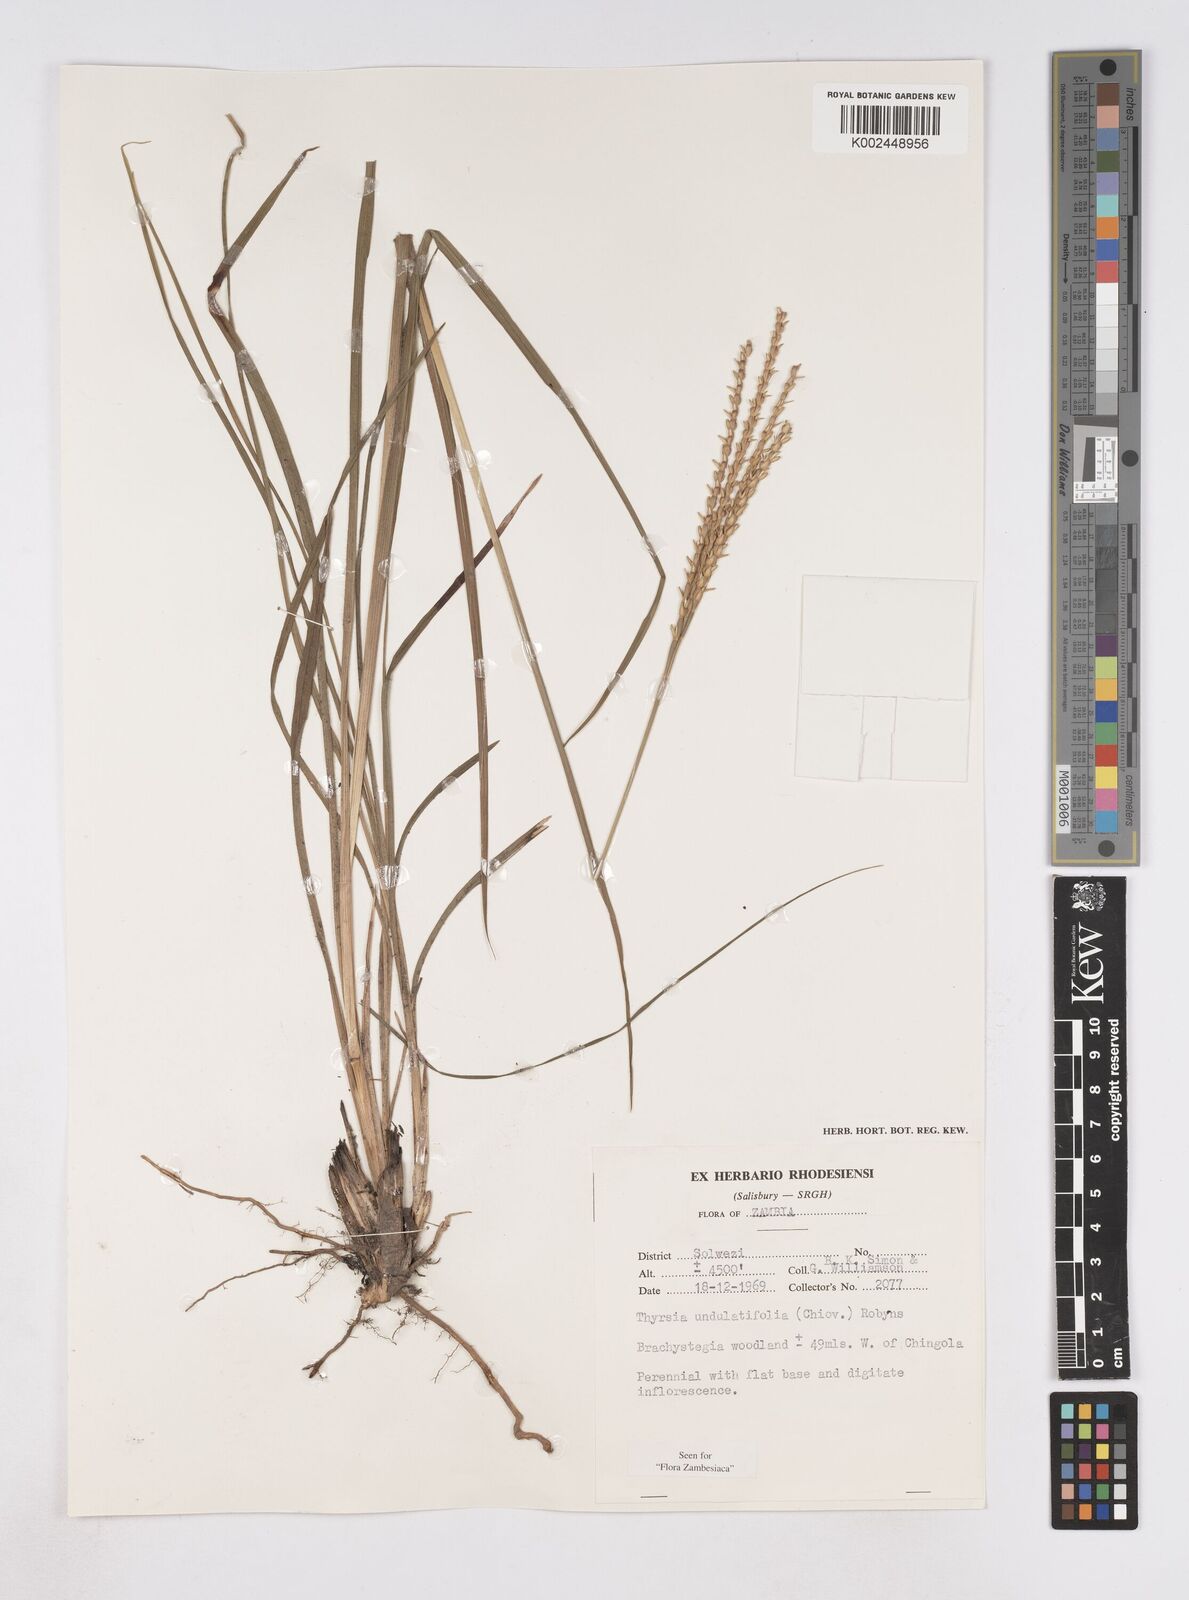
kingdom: Plantae
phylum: Tracheophyta
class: Liliopsida
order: Poales
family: Poaceae
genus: Thyrsia
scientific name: Thyrsia huillensis
